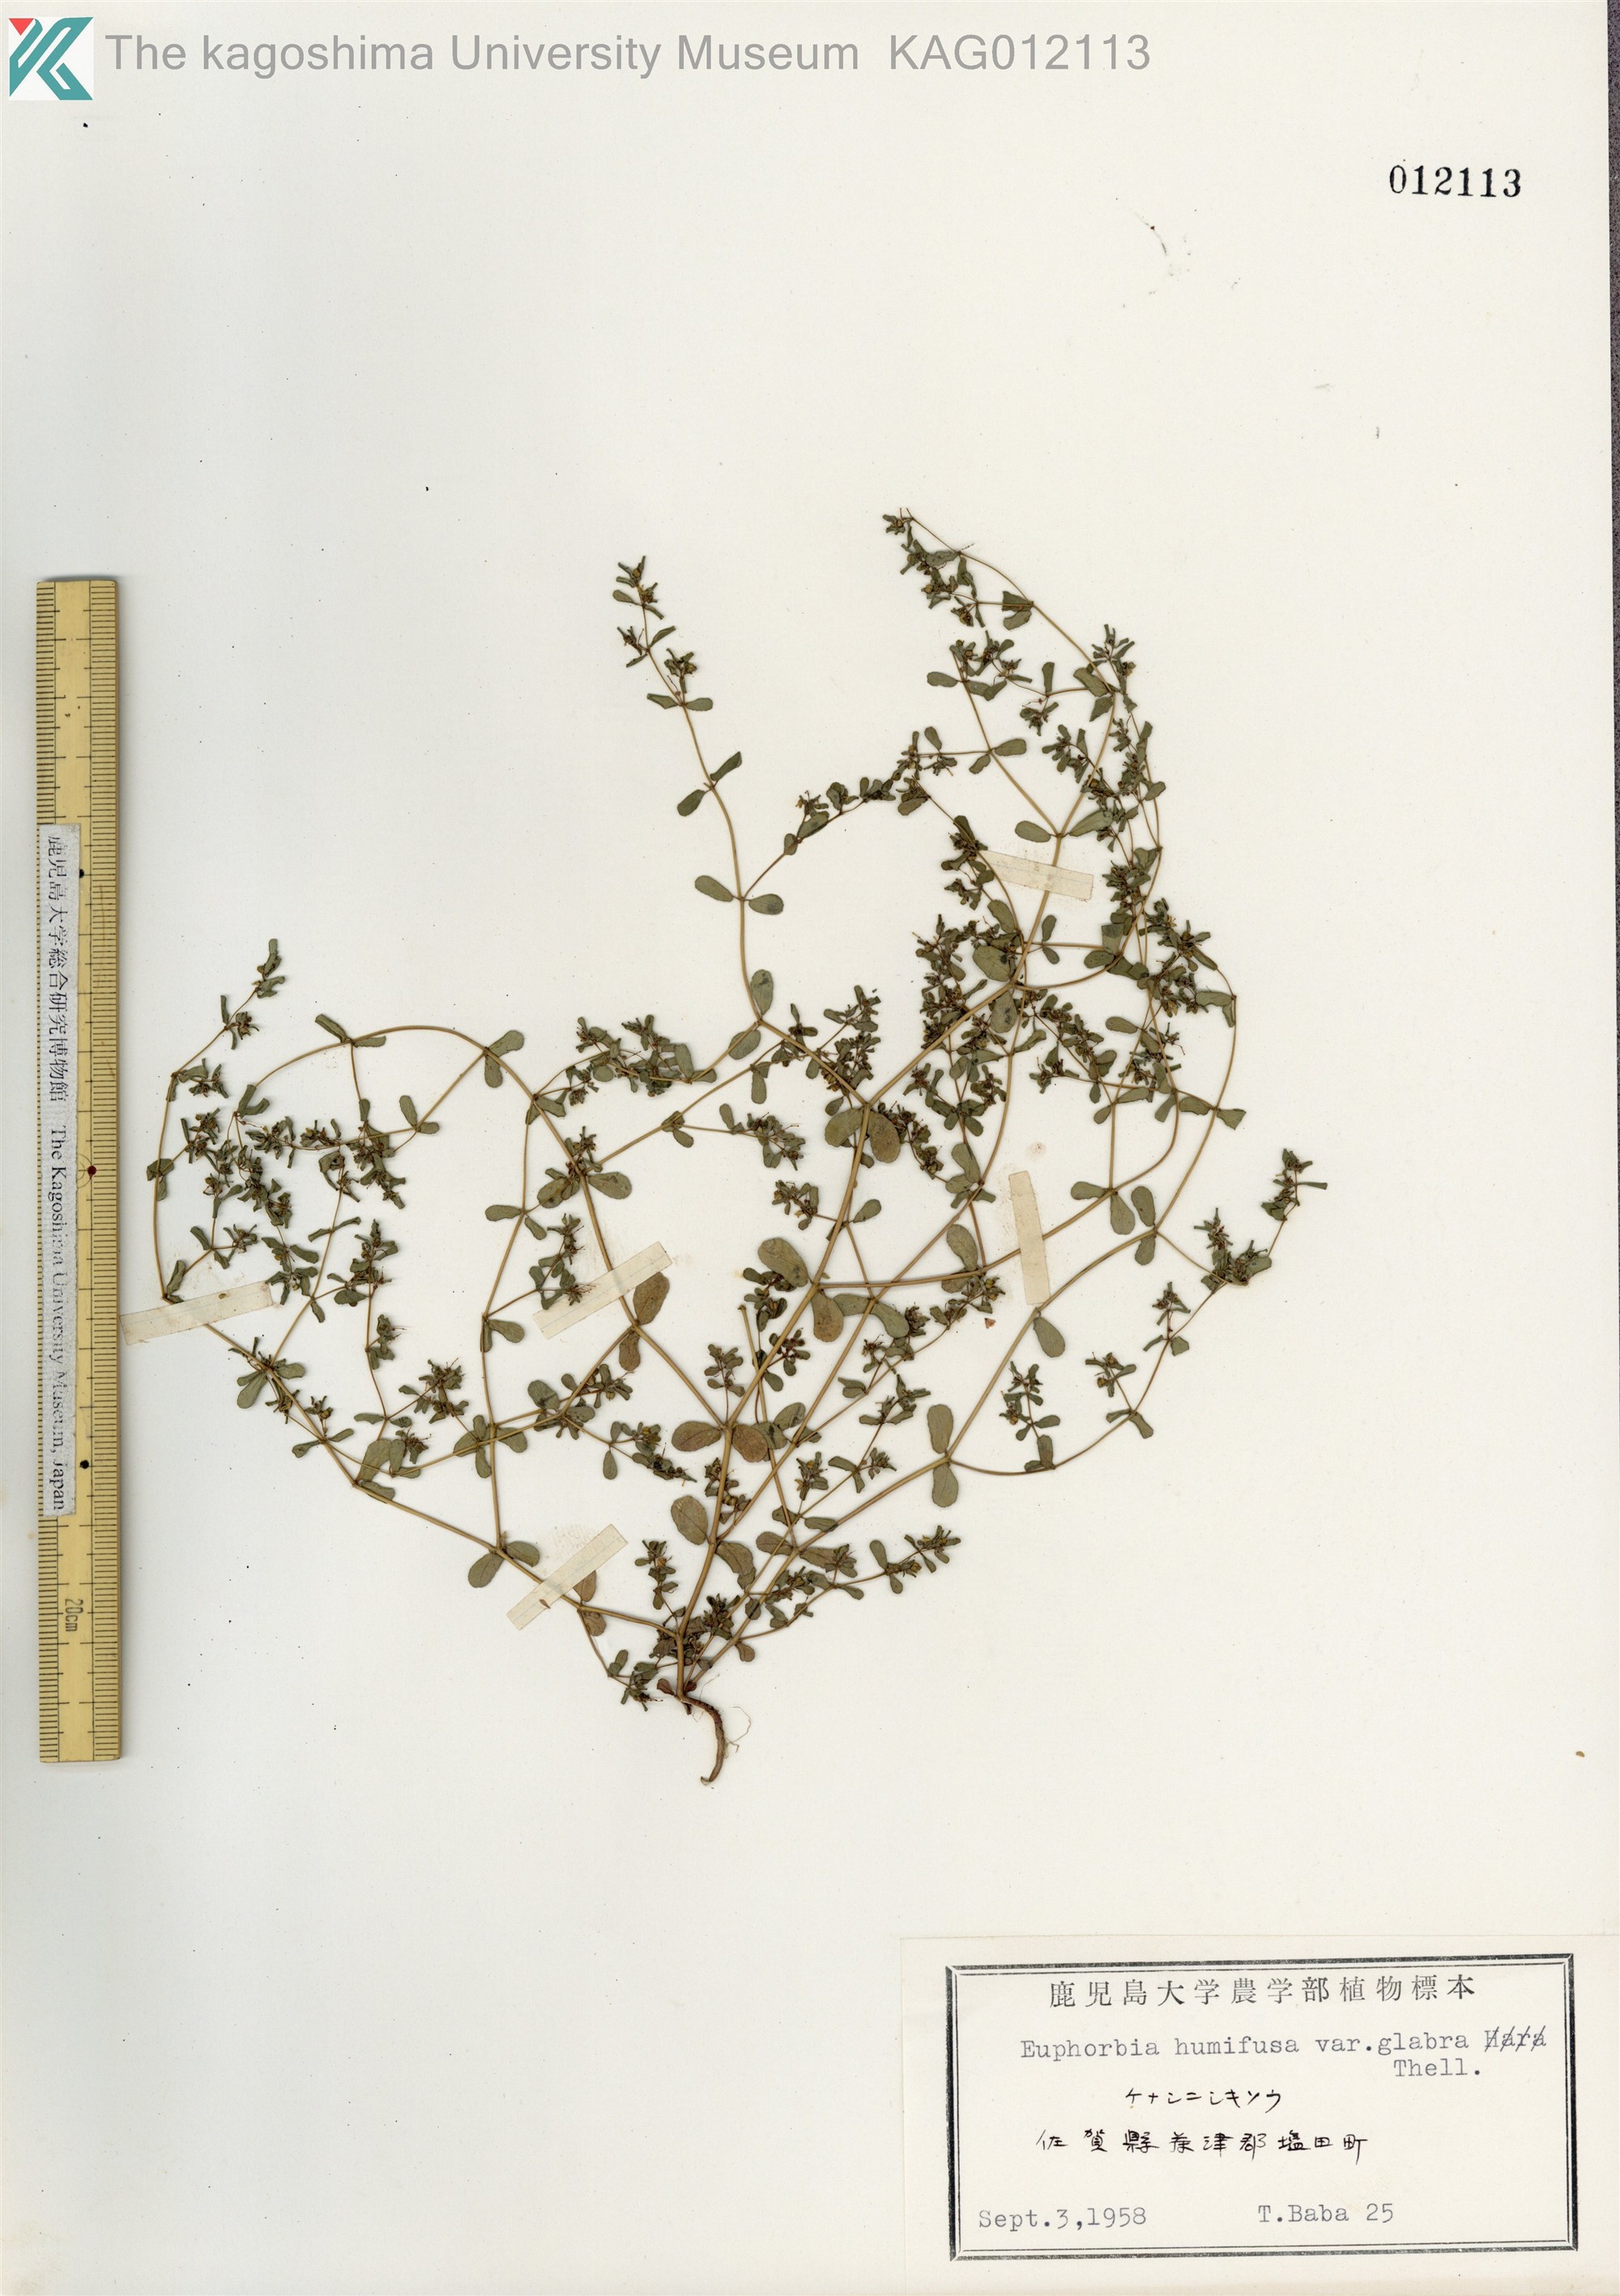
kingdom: Plantae
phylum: Tracheophyta
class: Magnoliopsida
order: Malpighiales
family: Euphorbiaceae
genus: Euphorbia
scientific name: Euphorbia humifusa
